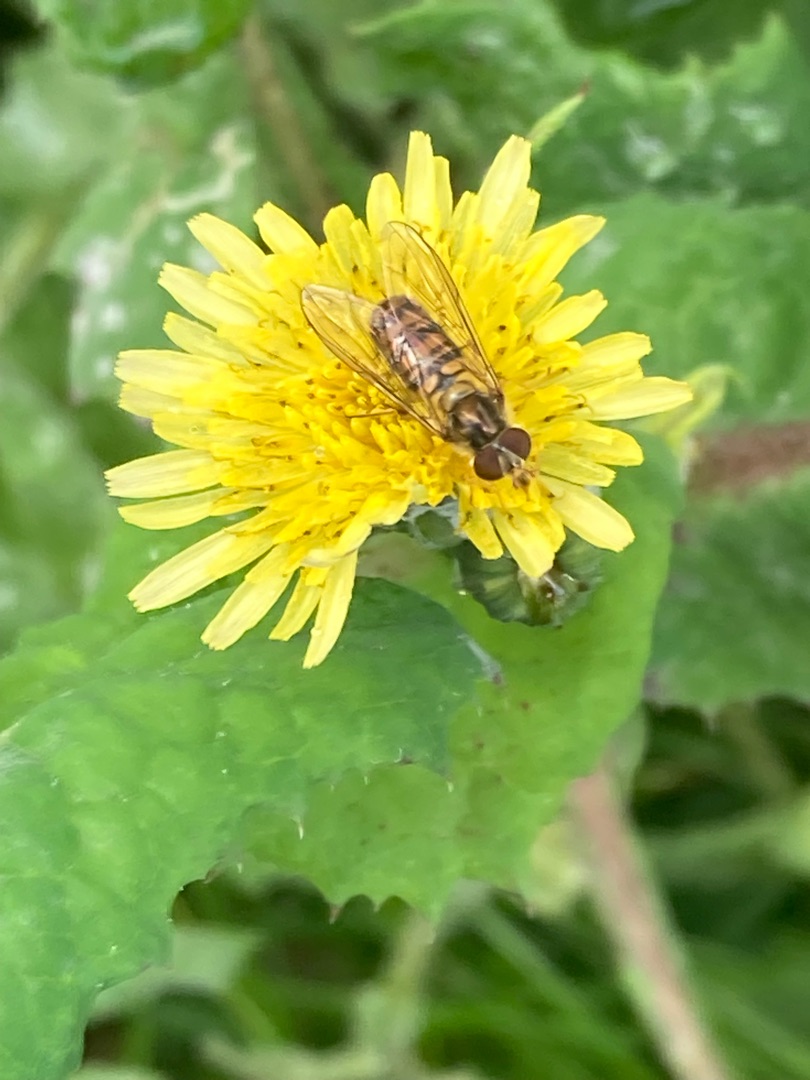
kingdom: Animalia
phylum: Arthropoda
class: Insecta
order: Diptera
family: Syrphidae
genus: Episyrphus
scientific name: Episyrphus balteatus
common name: Dobbeltbåndet svirreflue
